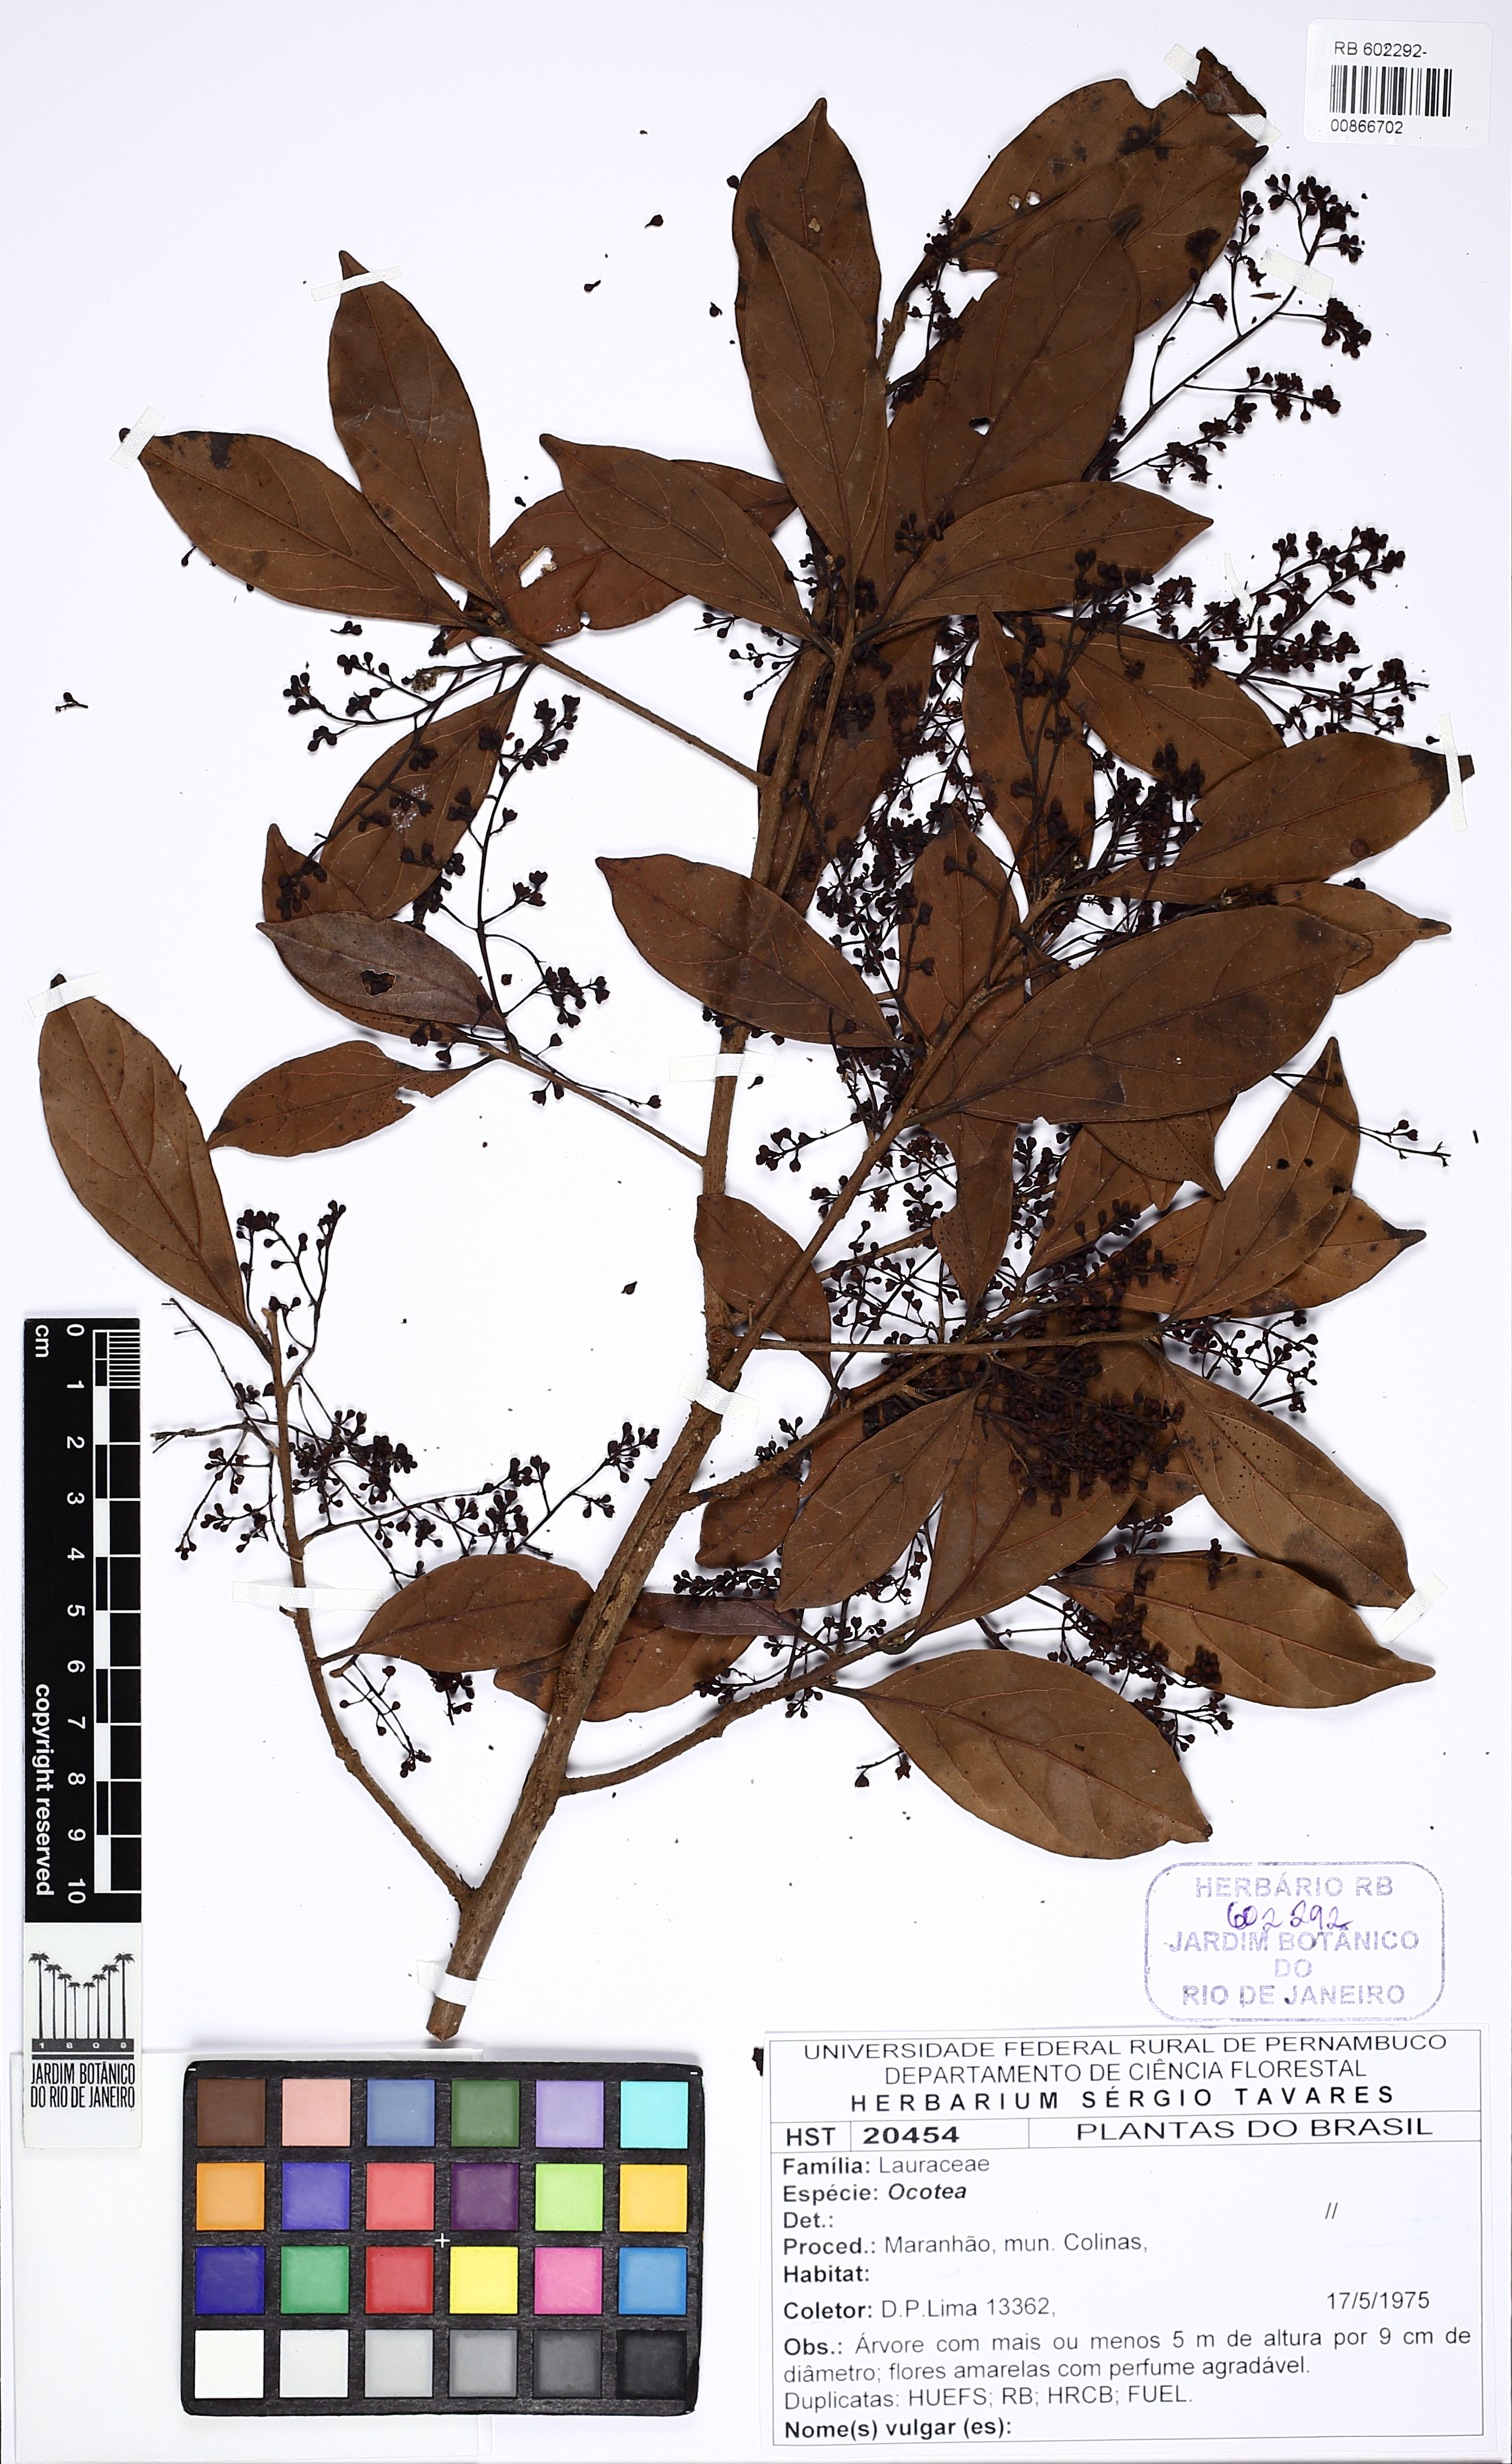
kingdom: Plantae
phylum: Tracheophyta
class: Magnoliopsida
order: Laurales
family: Lauraceae
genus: Ocotea
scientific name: Ocotea
